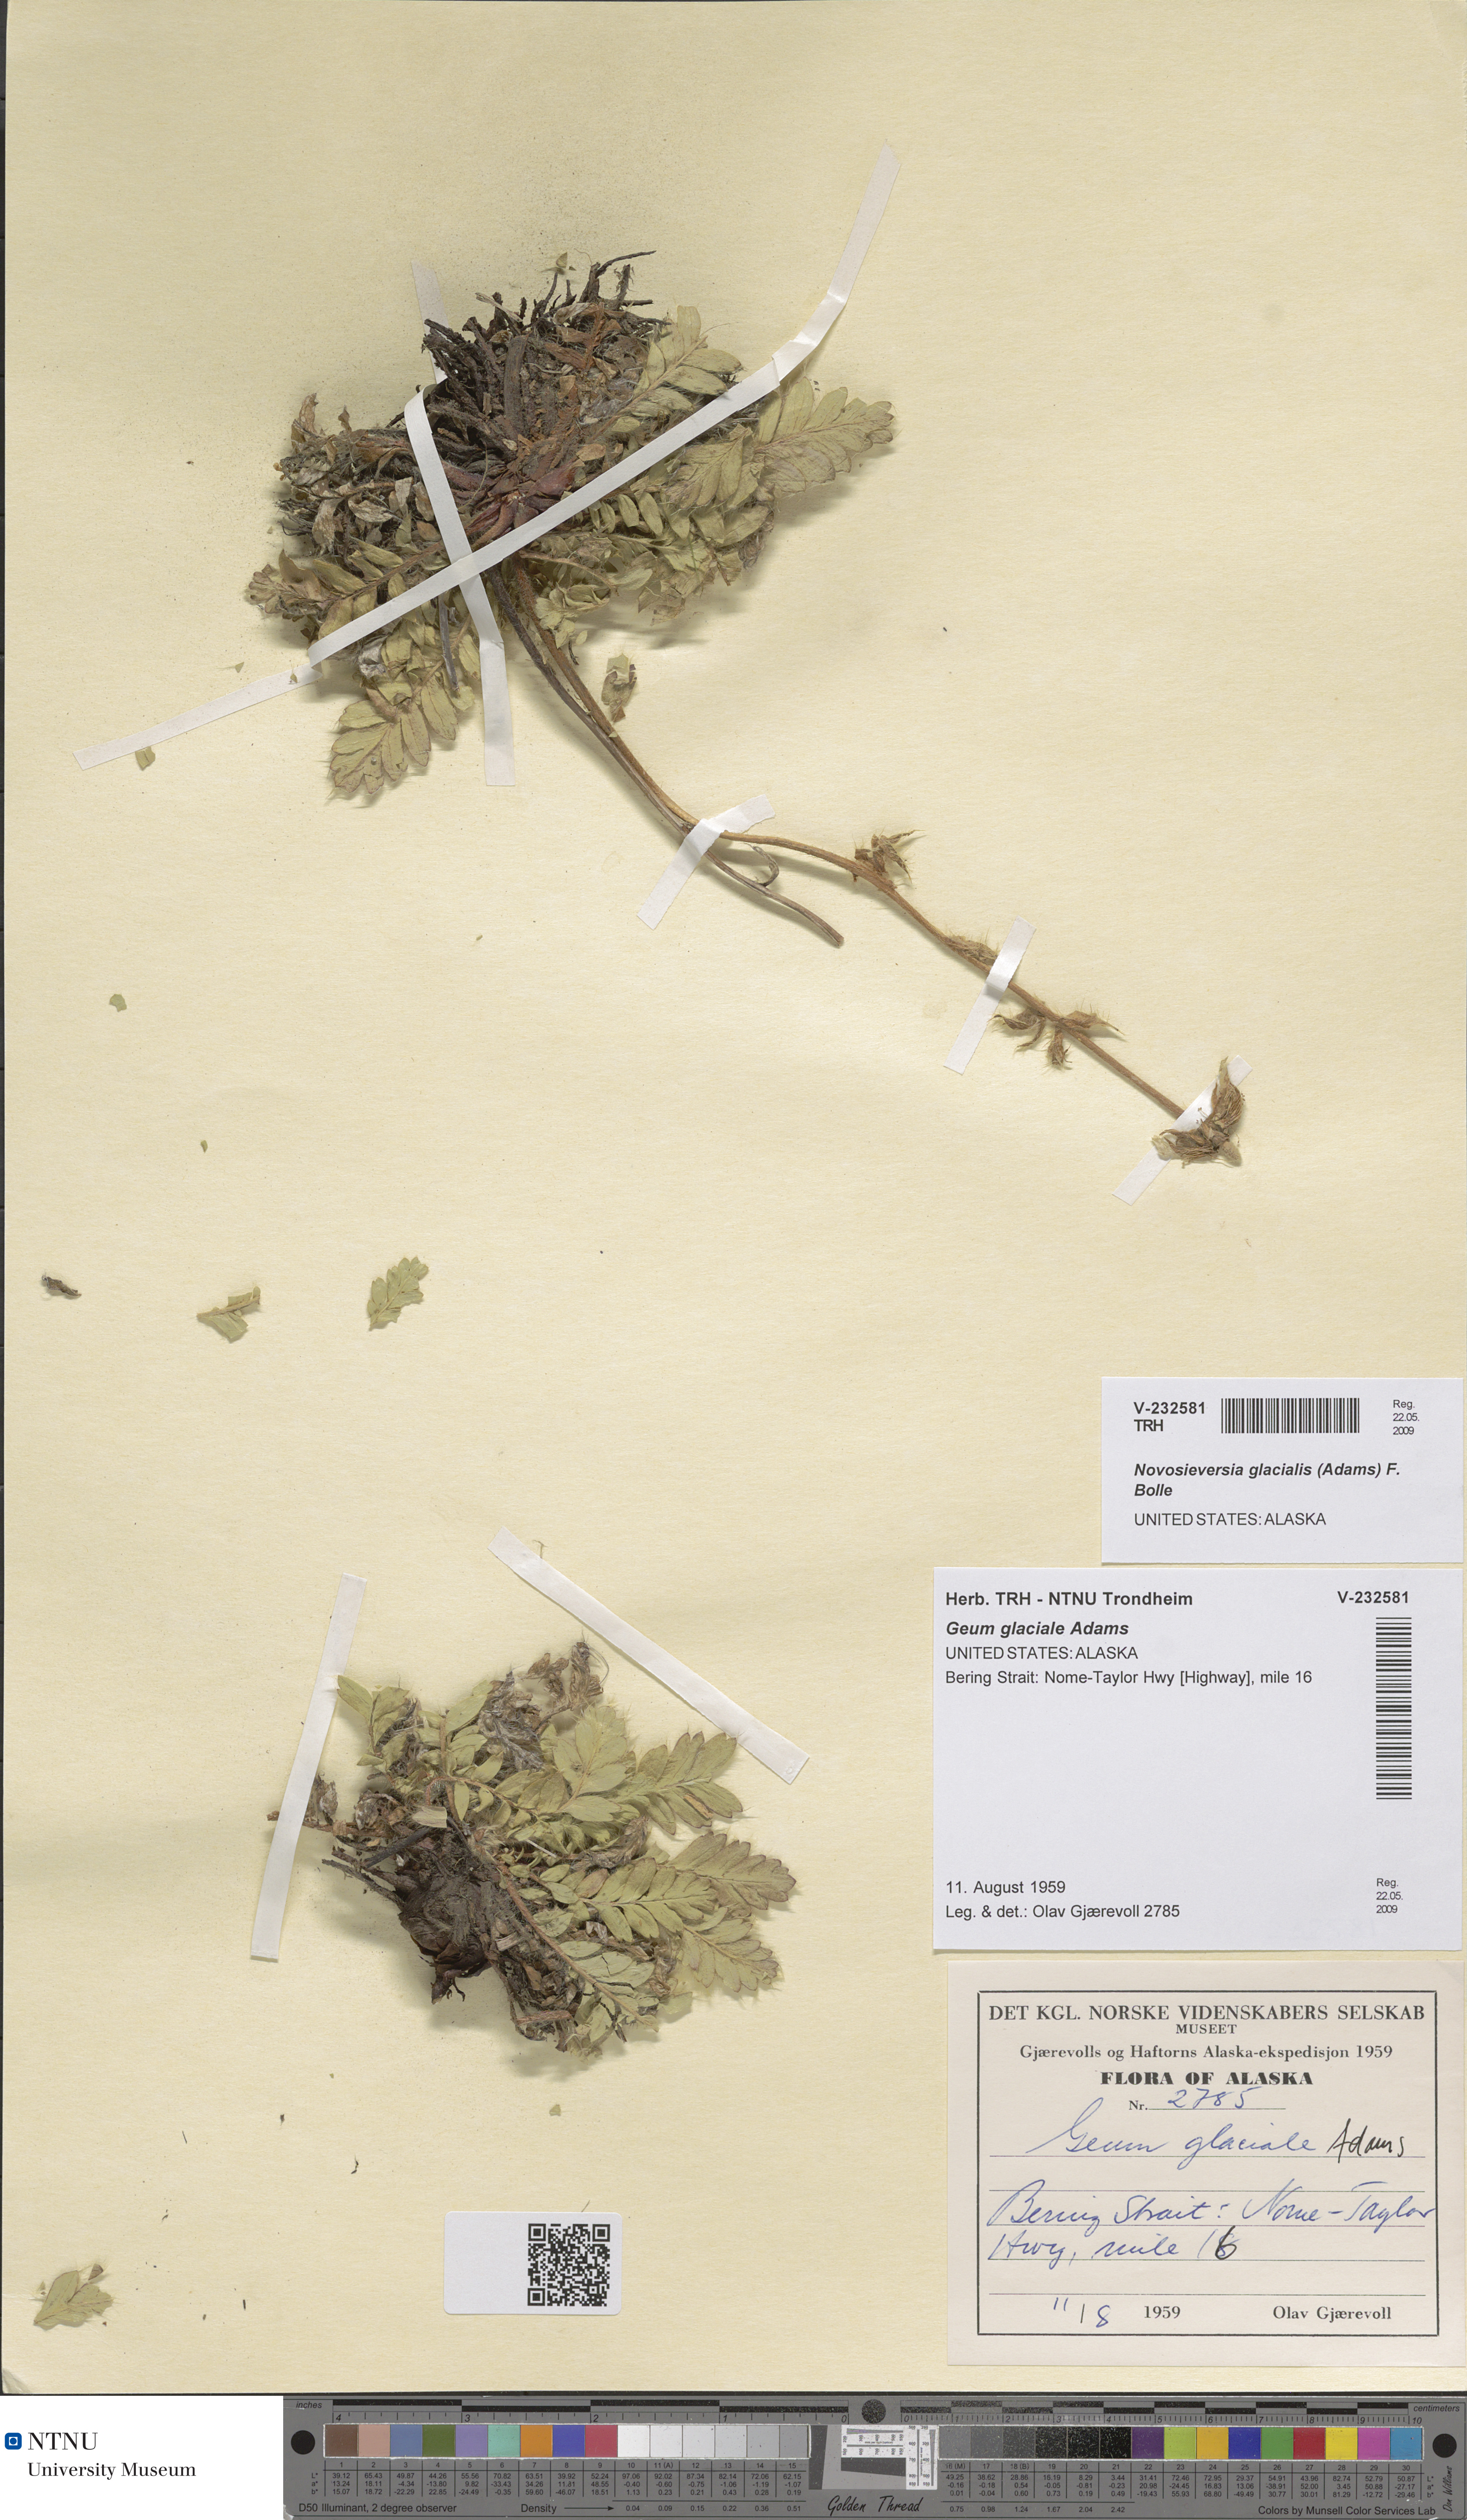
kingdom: Plantae
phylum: Tracheophyta
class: Magnoliopsida
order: Rosales
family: Rosaceae
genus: Geum
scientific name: Geum glaciale
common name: Glacier avens
